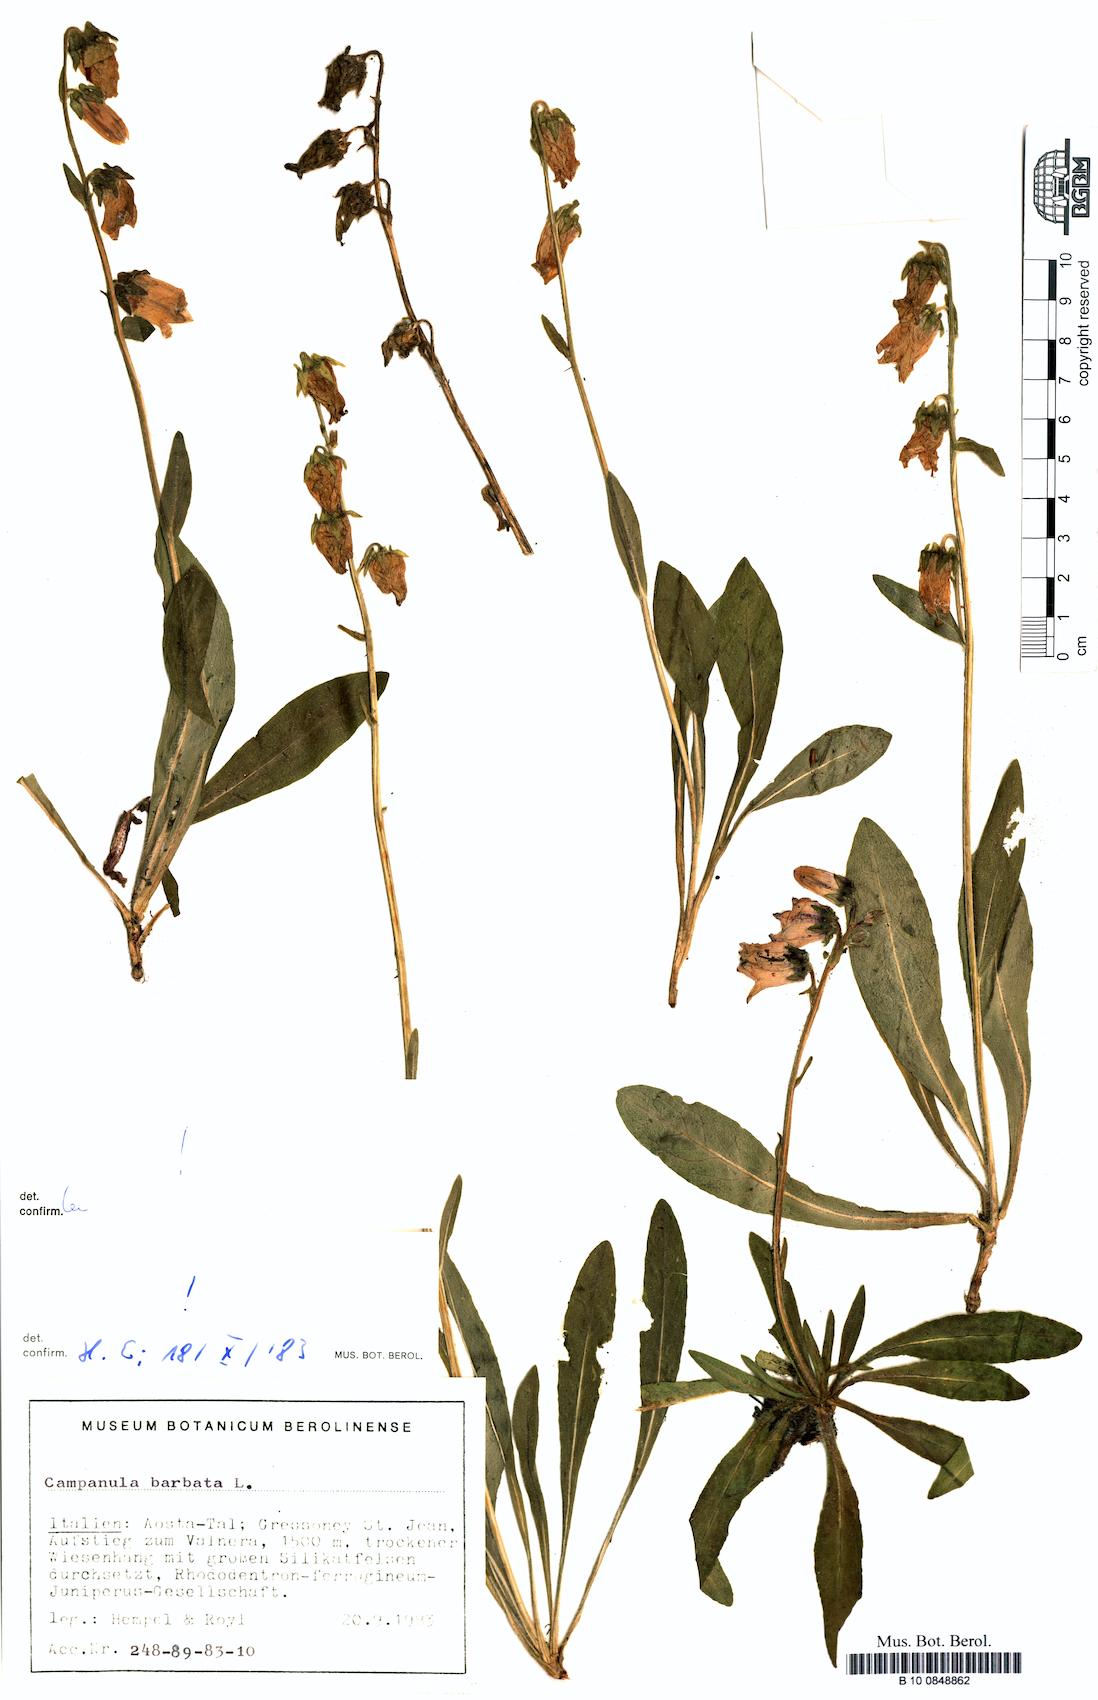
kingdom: Plantae
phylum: Tracheophyta
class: Magnoliopsida
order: Asterales
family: Campanulaceae
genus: Campanula
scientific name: Campanula barbata
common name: Bearded bellflower
